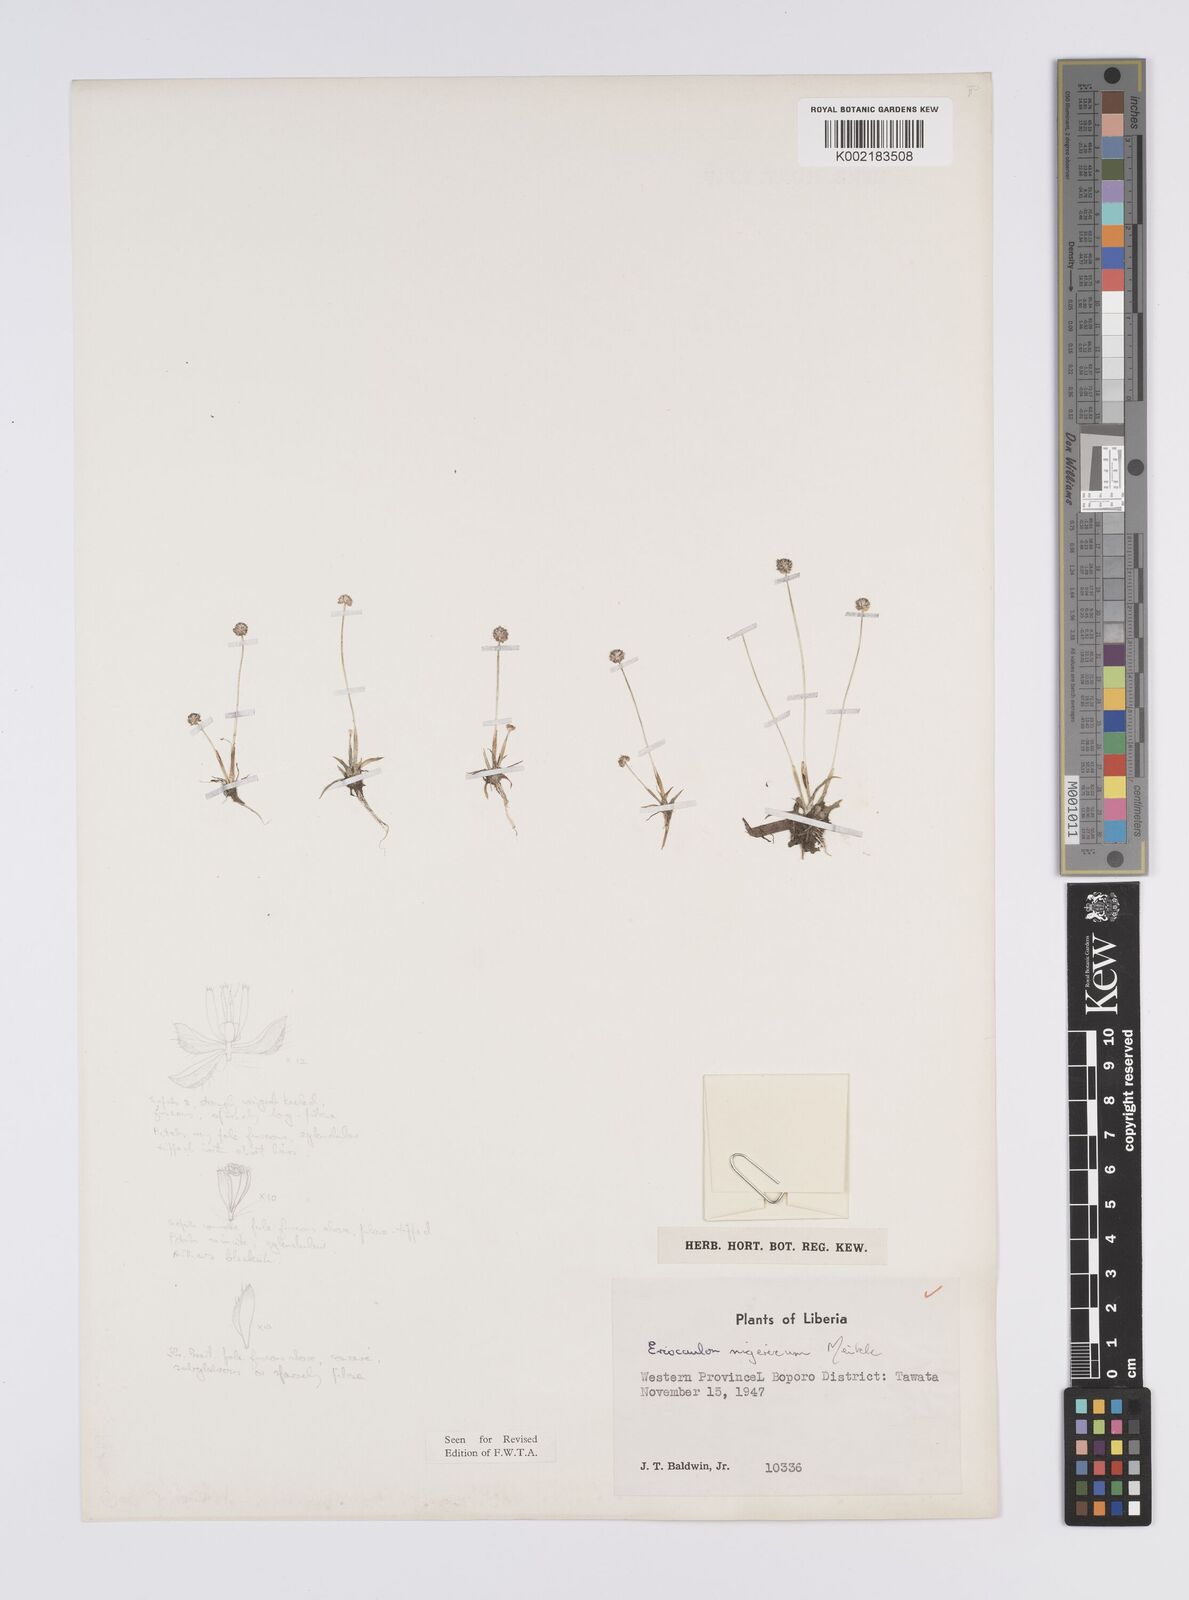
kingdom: Plantae
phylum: Tracheophyta
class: Liliopsida
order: Poales
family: Eriocaulaceae
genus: Eriocaulon
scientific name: Eriocaulon nigericum
